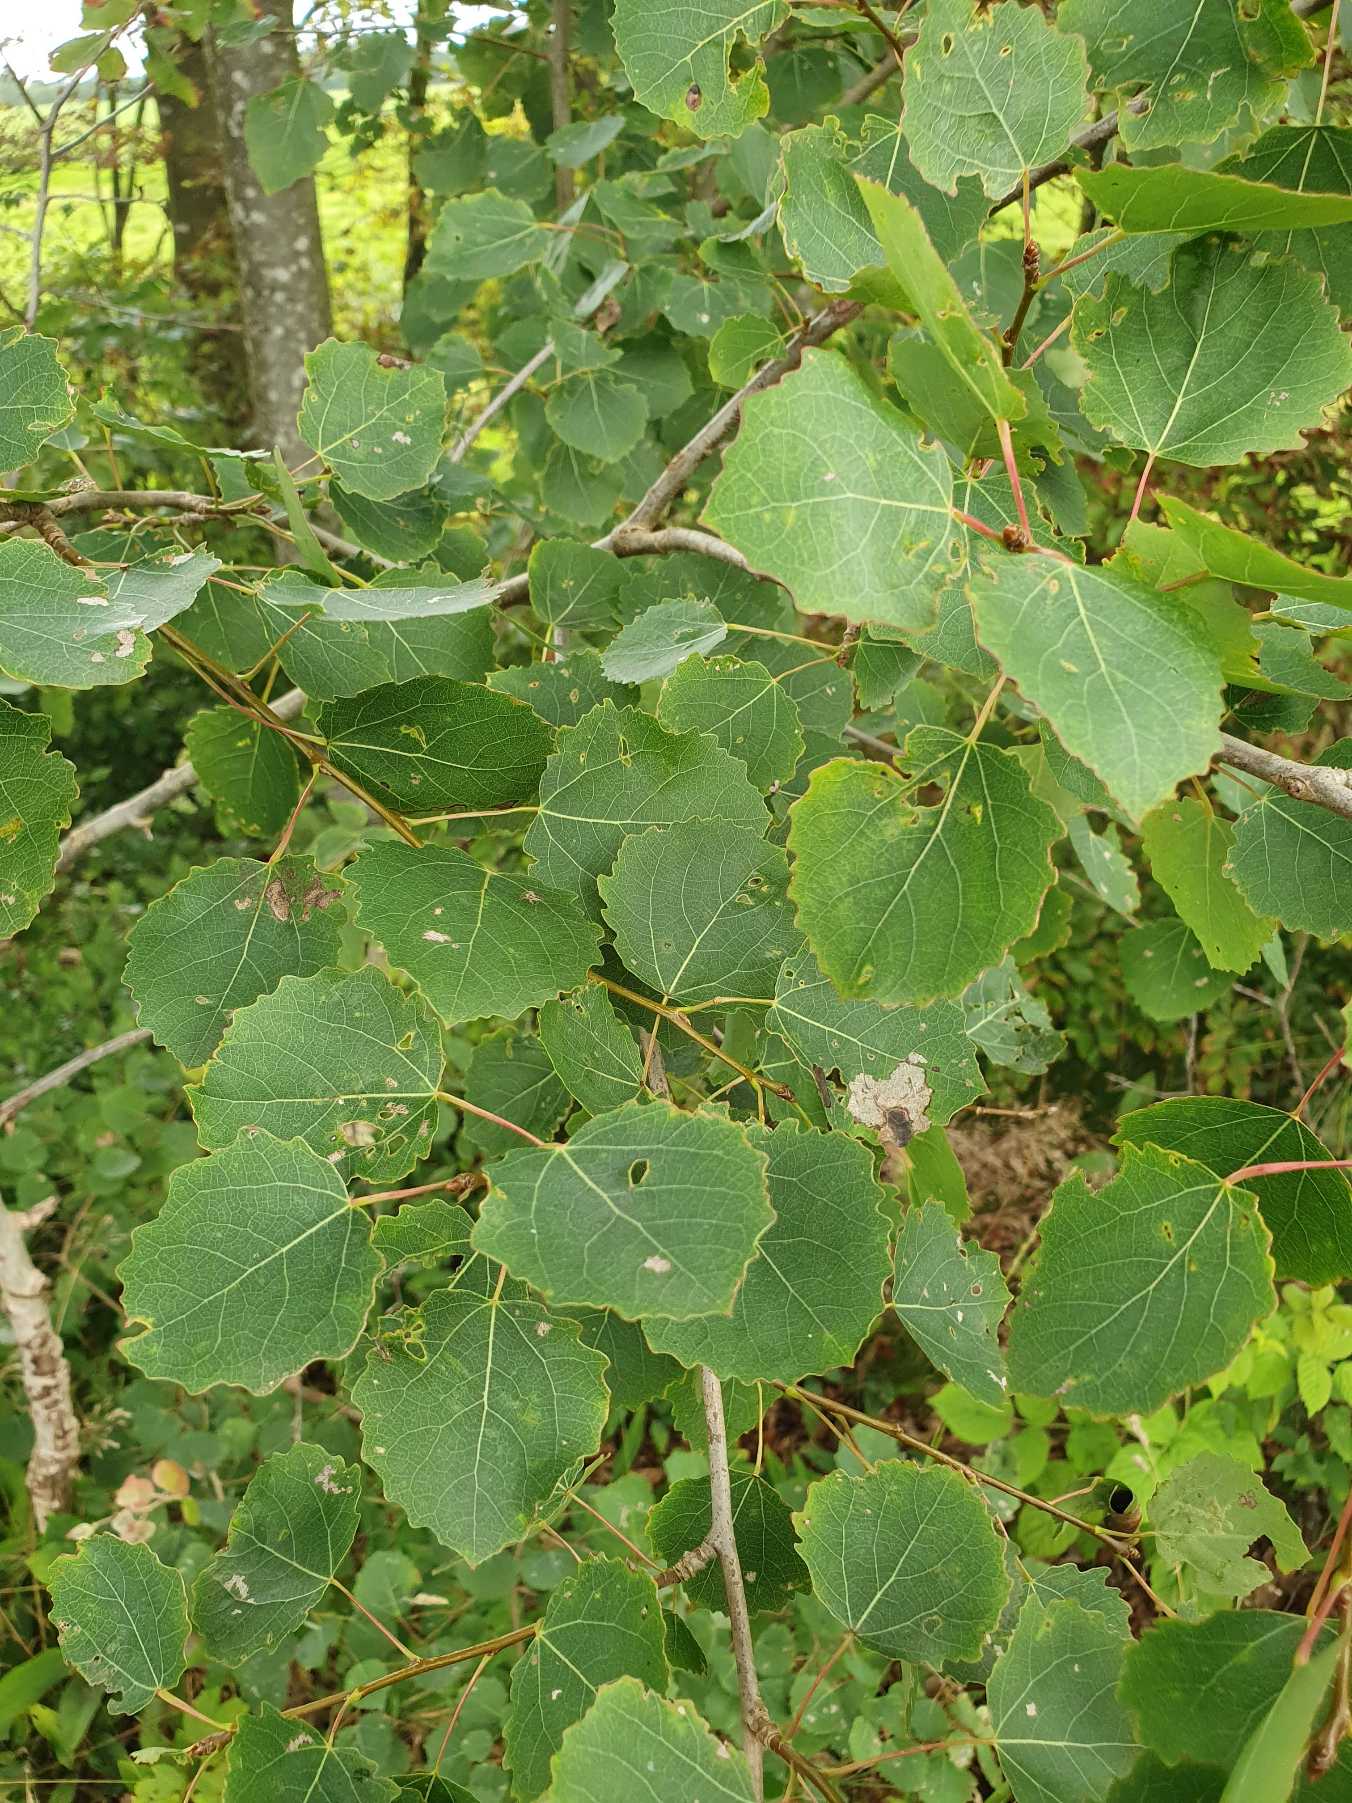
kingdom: Plantae
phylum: Tracheophyta
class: Magnoliopsida
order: Malpighiales
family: Salicaceae
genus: Populus
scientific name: Populus tremula
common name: Bævreasp
